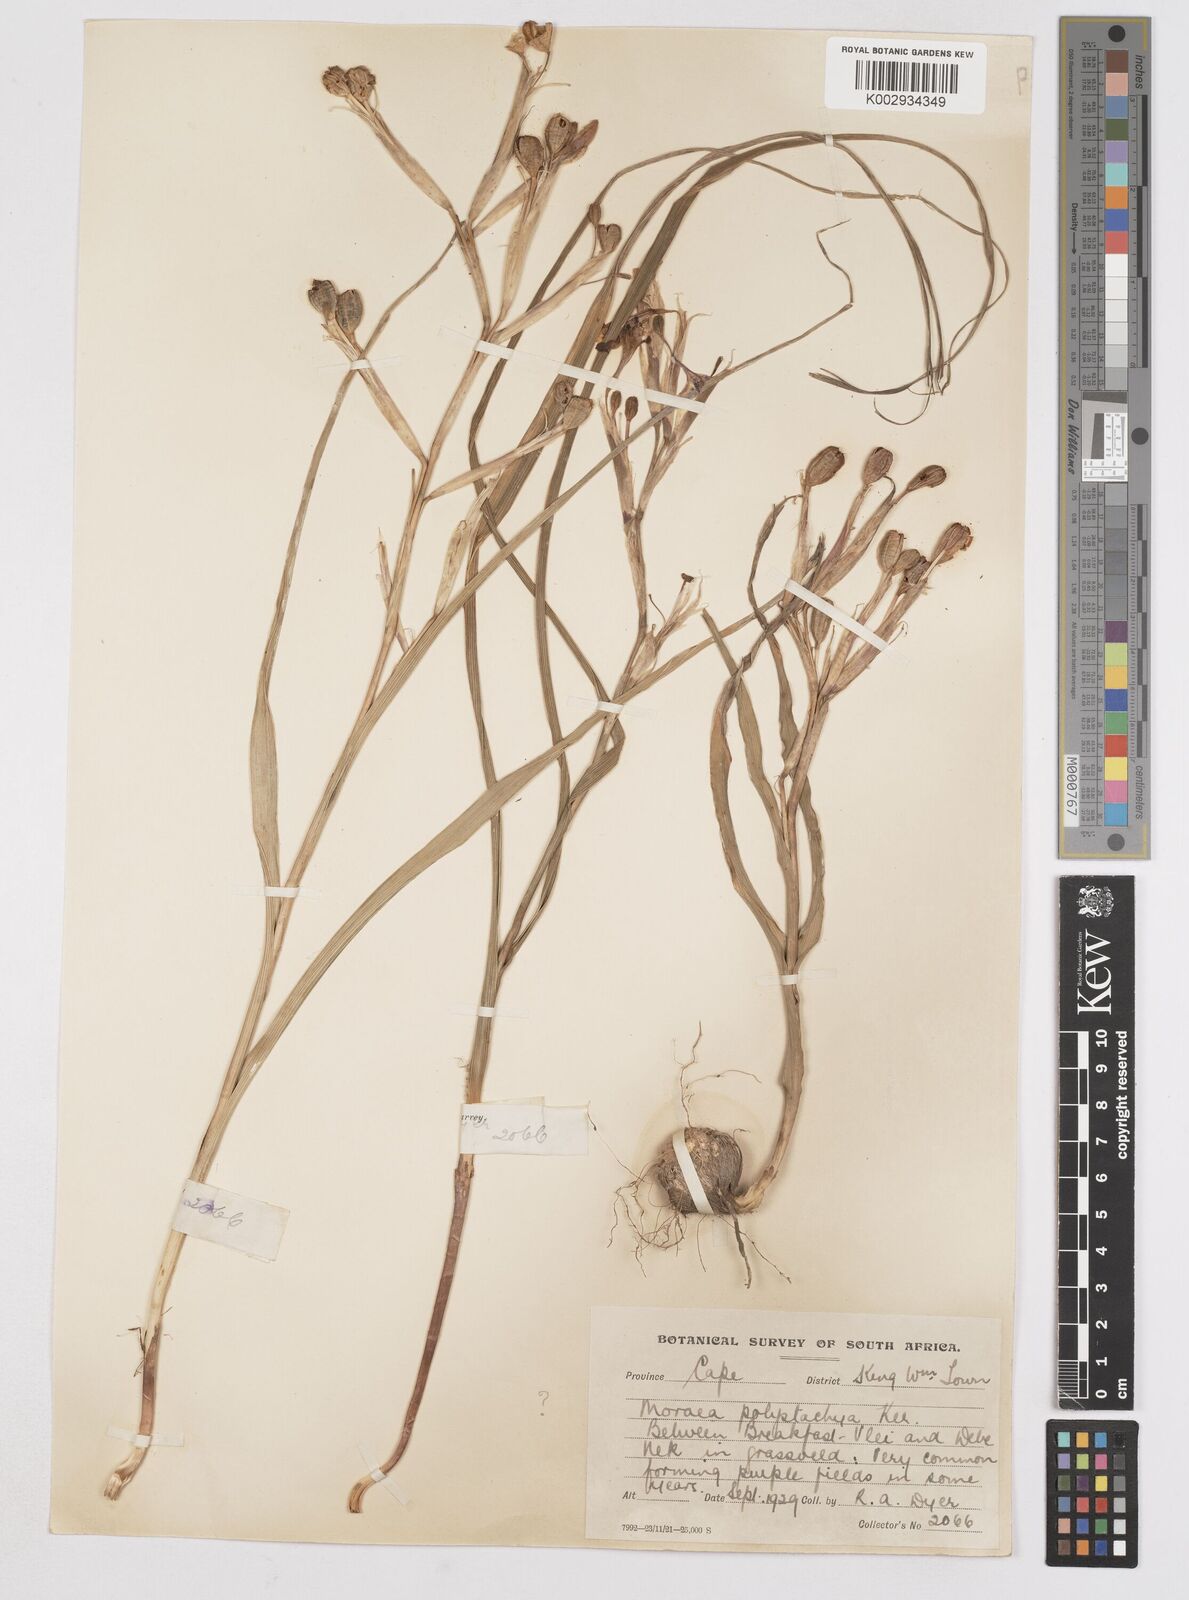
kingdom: Plantae
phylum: Tracheophyta
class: Liliopsida
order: Asparagales
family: Iridaceae
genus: Moraea
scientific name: Moraea polystachya
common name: Blue-tulip
